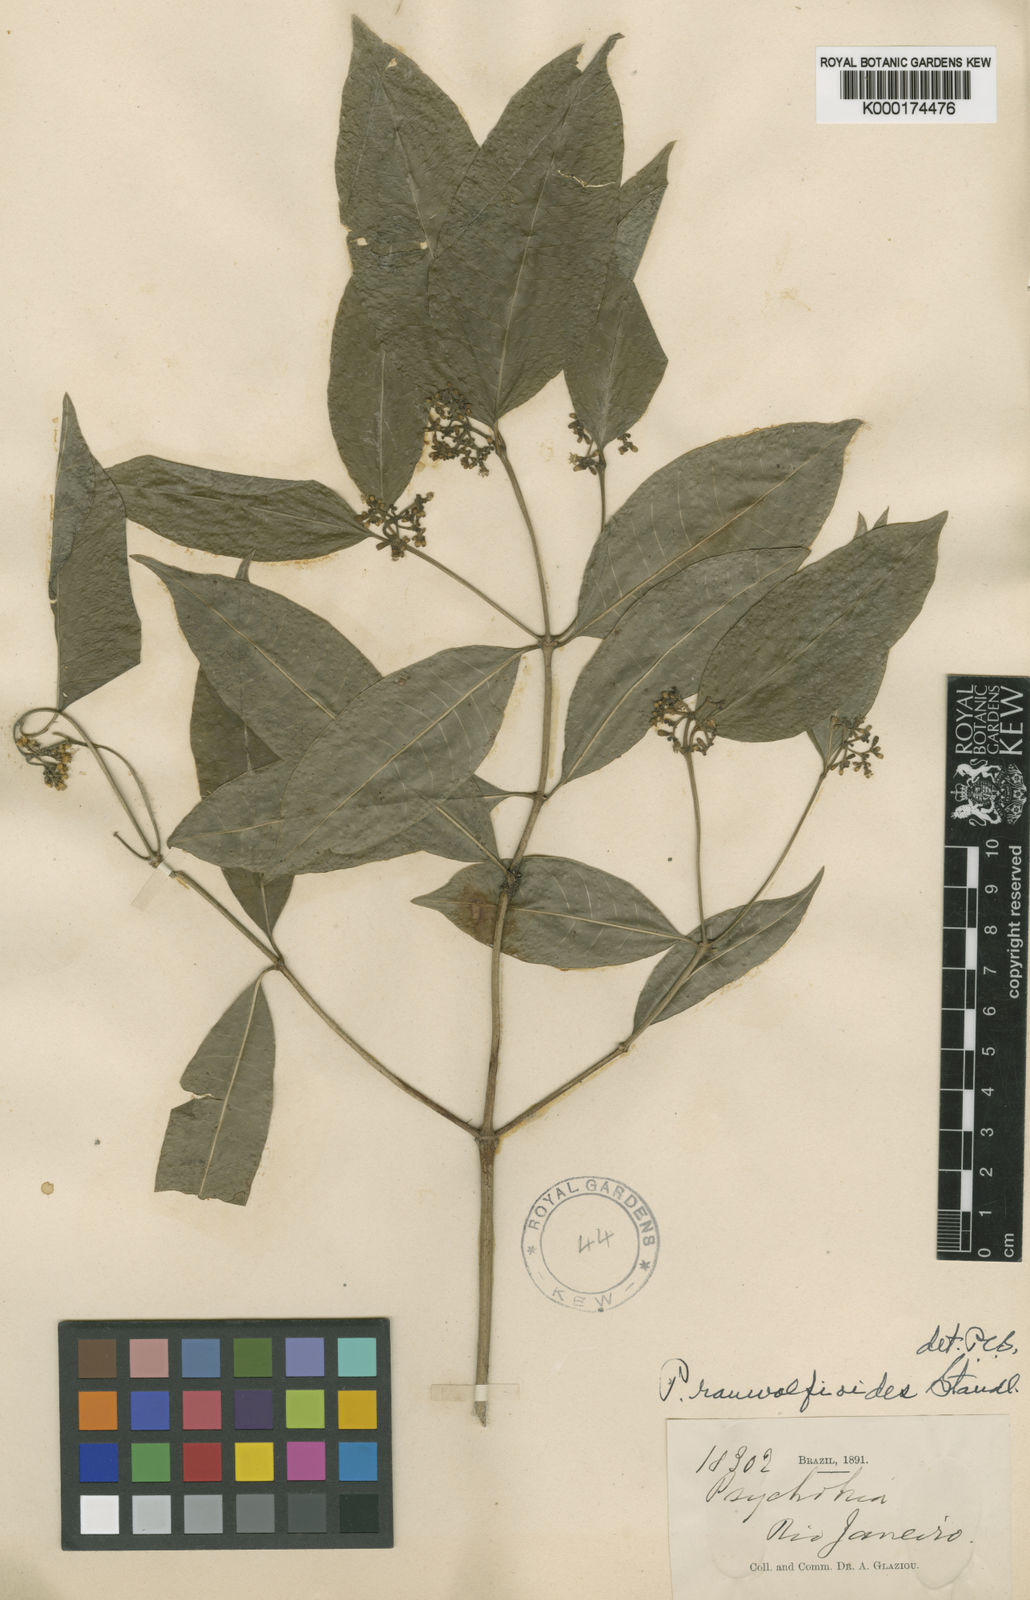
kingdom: Plantae
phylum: Tracheophyta
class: Magnoliopsida
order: Gentianales
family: Rubiaceae
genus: Psychotria
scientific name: Psychotria rauwolfioides
